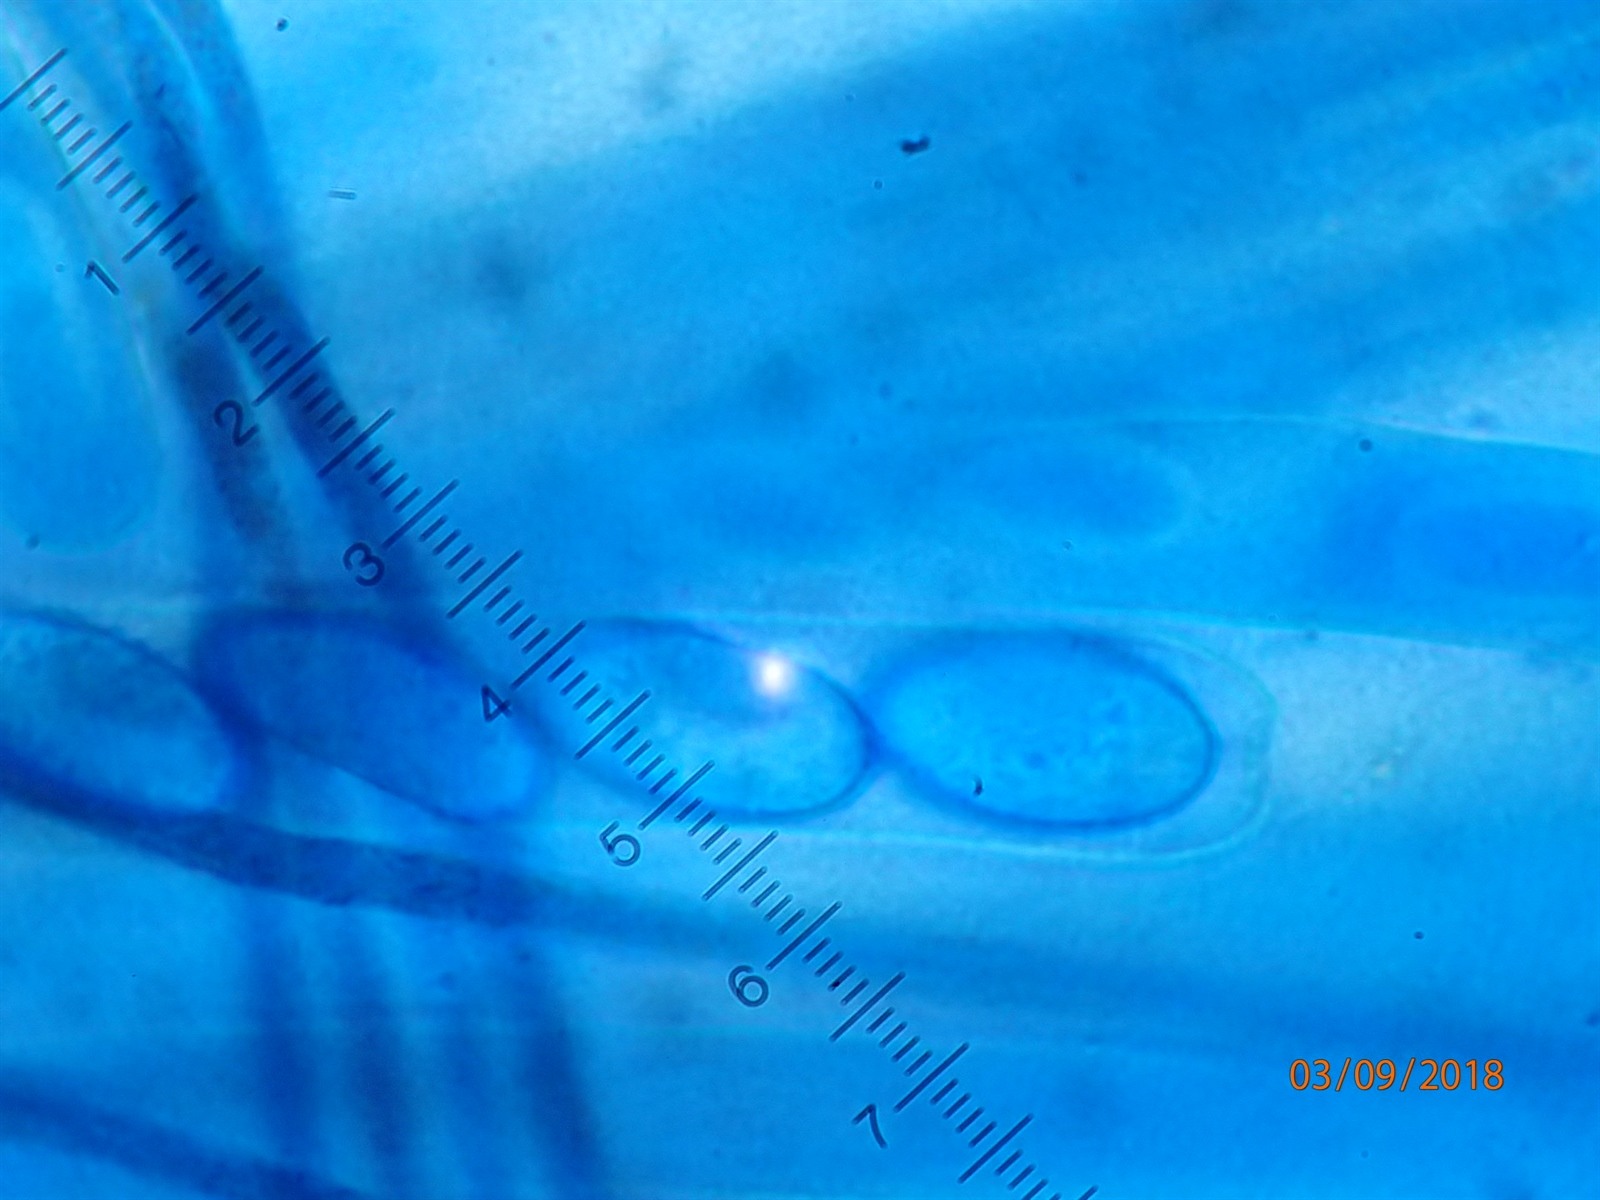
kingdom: Fungi
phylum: Ascomycota
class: Pezizomycetes
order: Pezizales
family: Pyronemataceae
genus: Cheilymenia
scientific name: Cheilymenia crucipila
